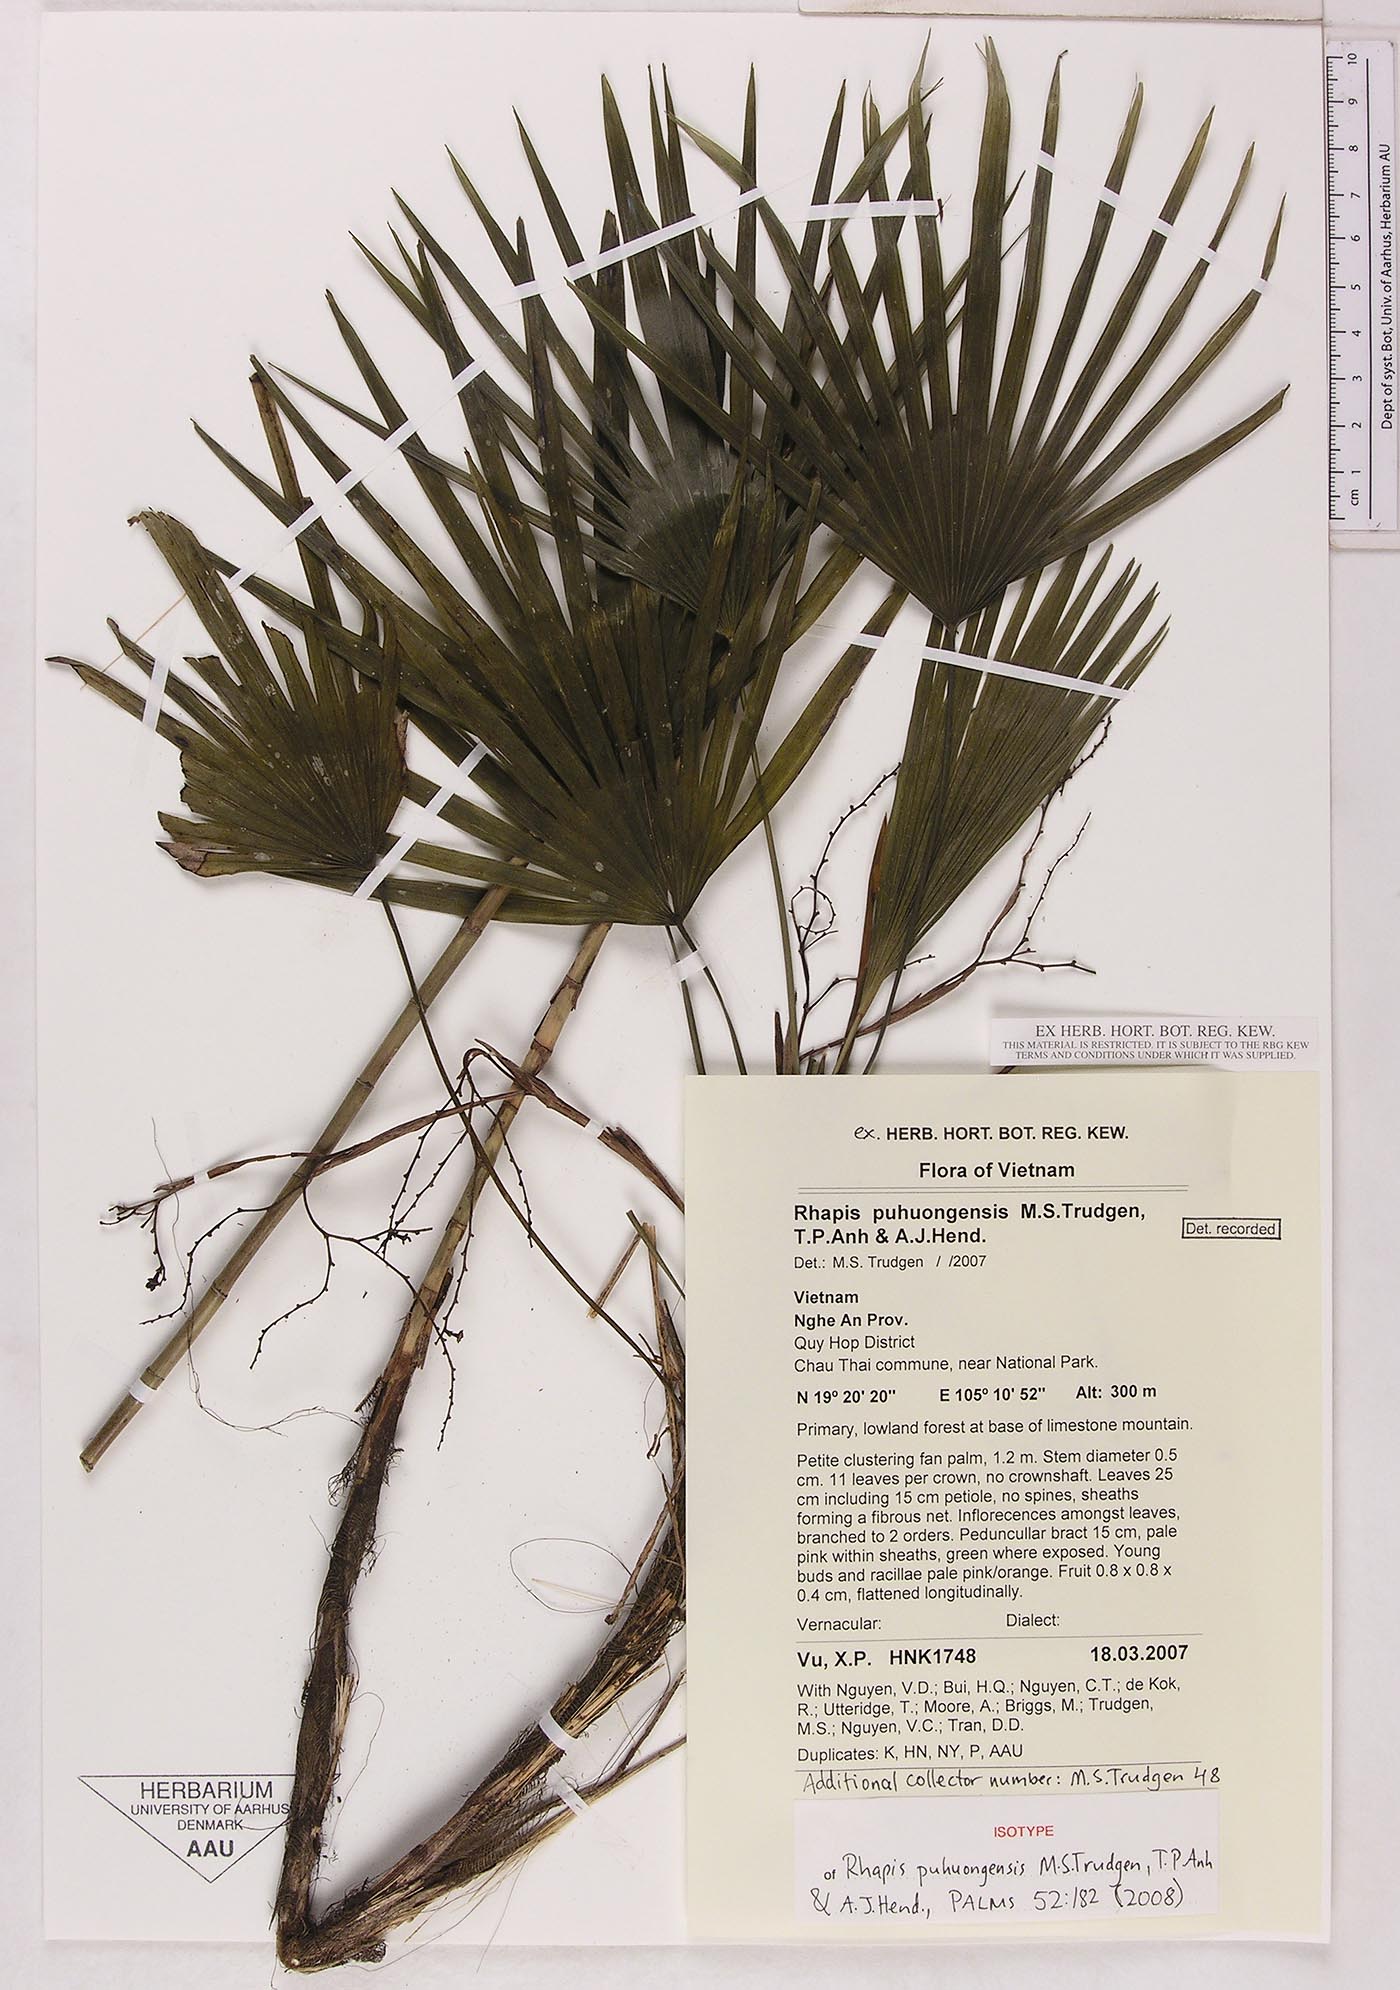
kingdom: Plantae
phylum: Tracheophyta
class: Liliopsida
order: Arecales
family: Arecaceae
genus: Rhapis
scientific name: Rhapis puhuongensis
